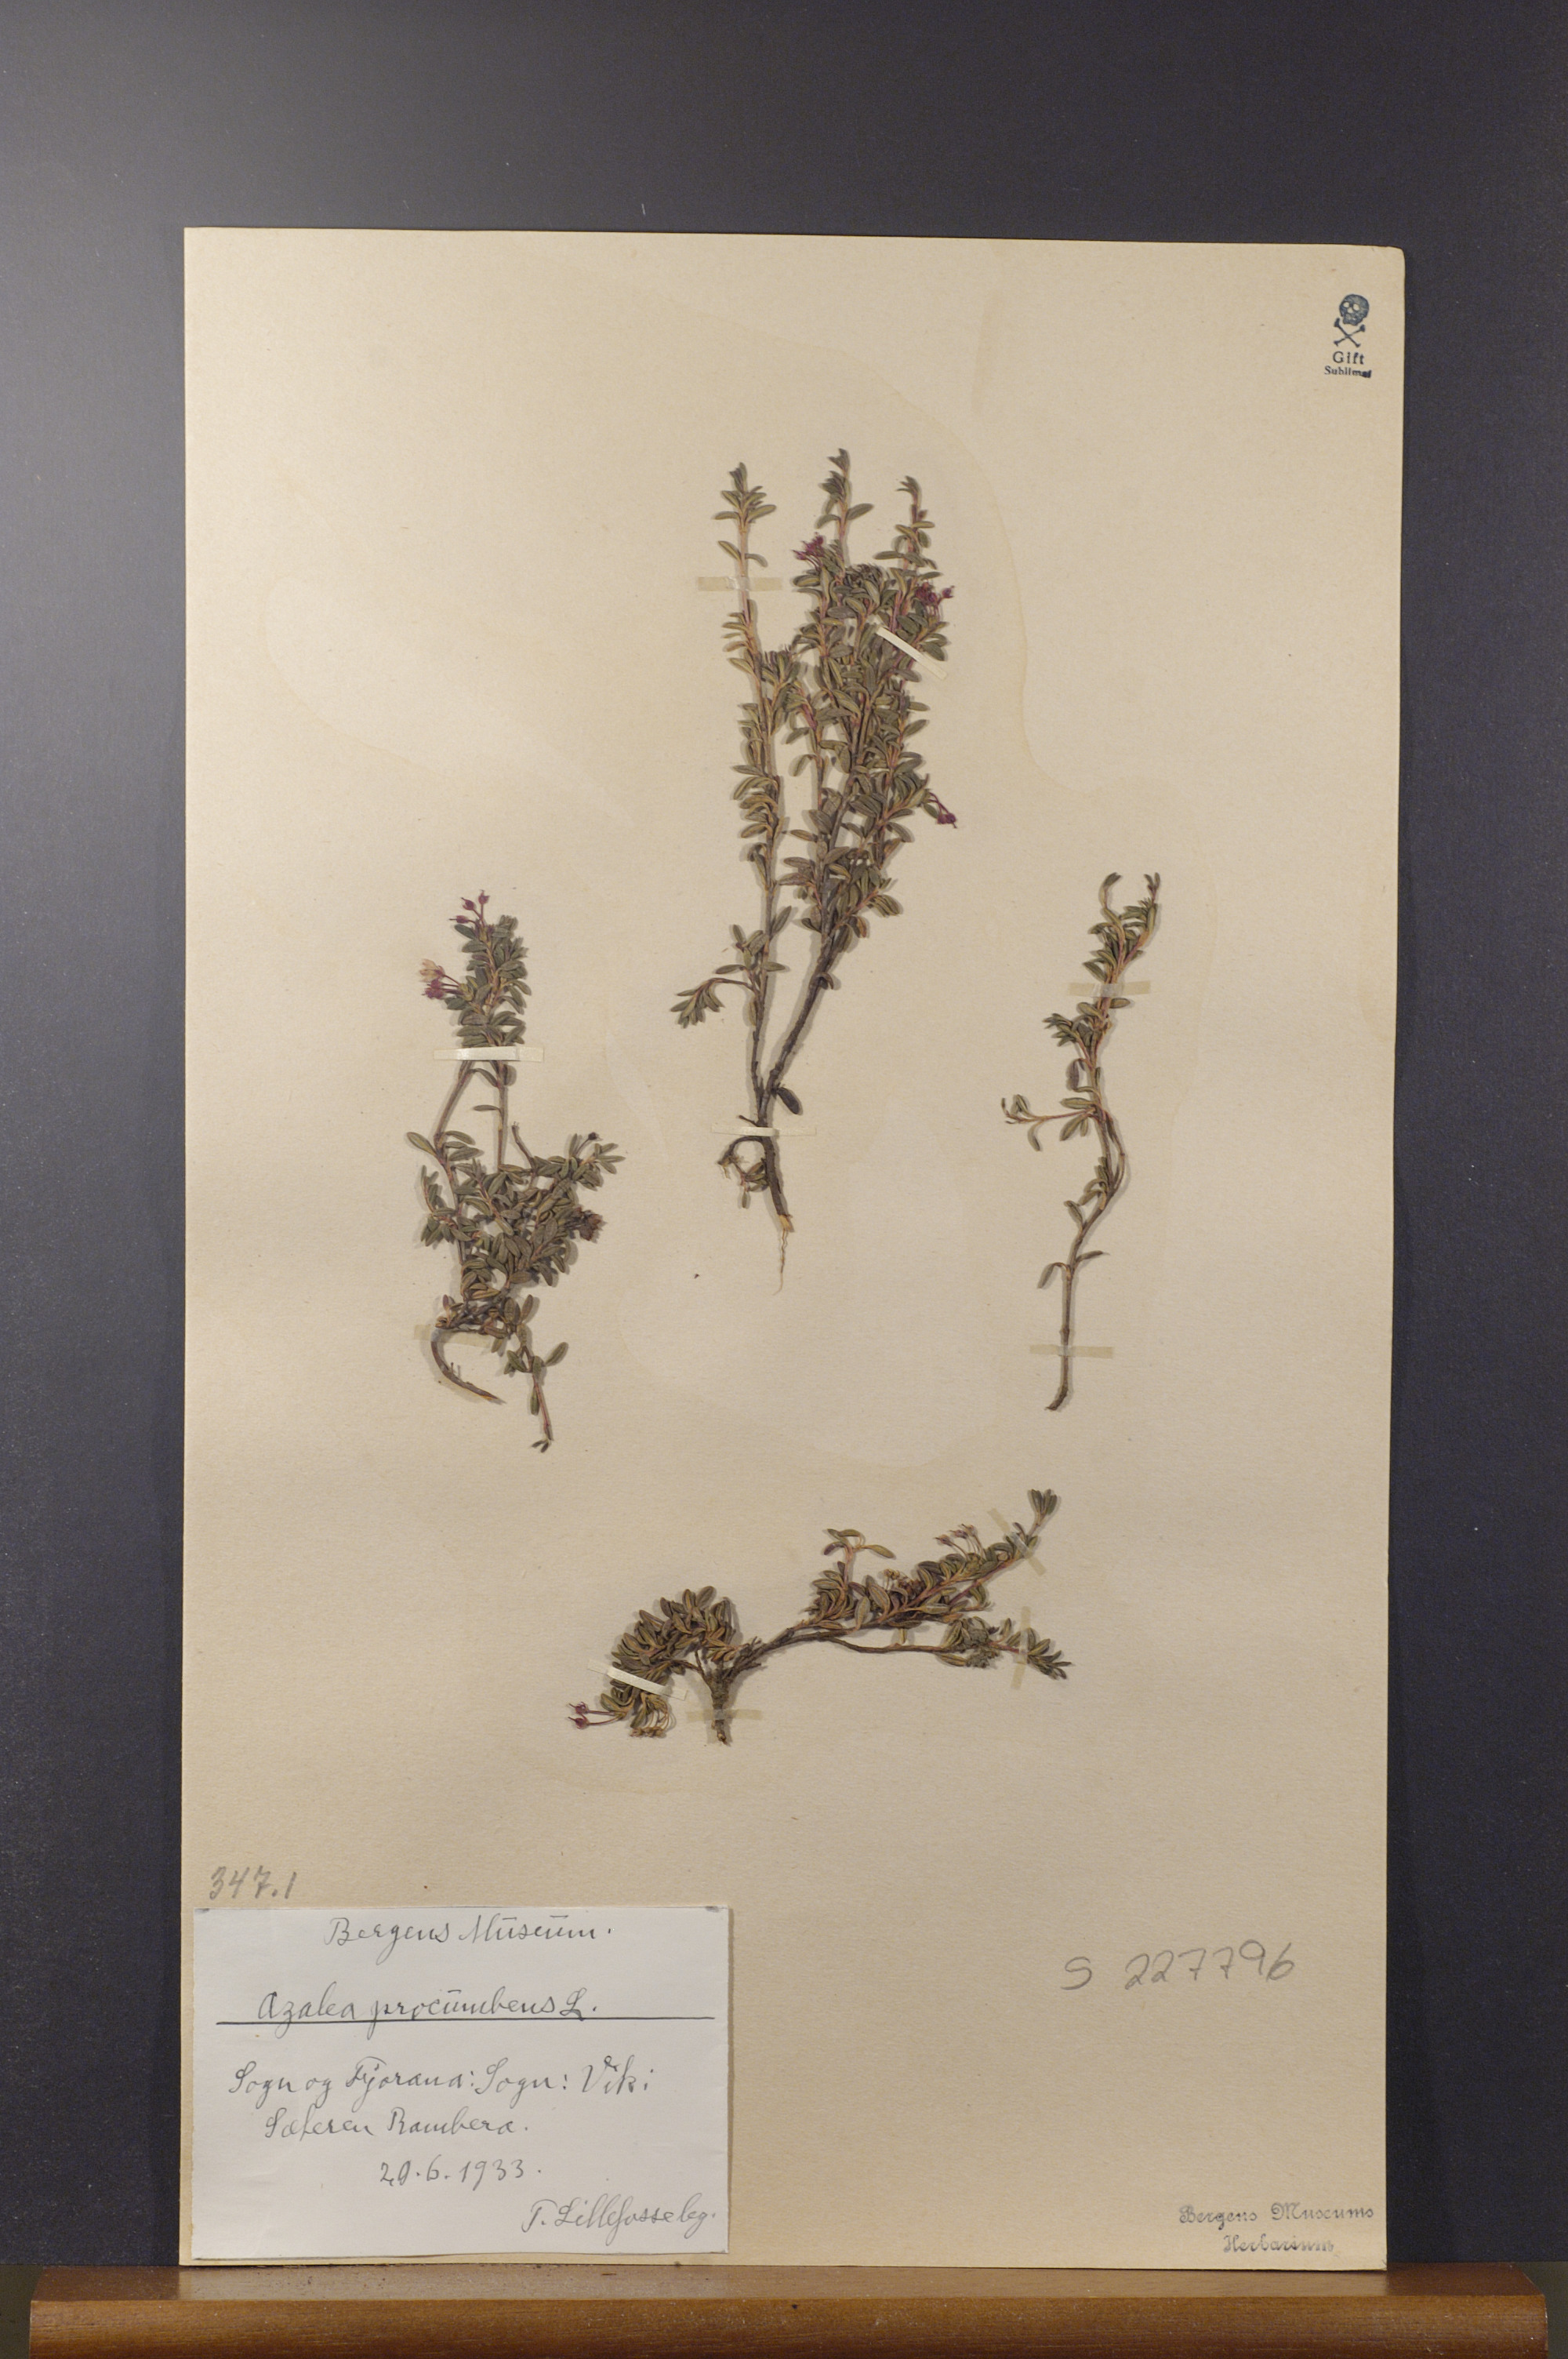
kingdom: Plantae
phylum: Tracheophyta
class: Magnoliopsida
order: Ericales
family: Ericaceae
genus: Kalmia
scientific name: Kalmia procumbens
